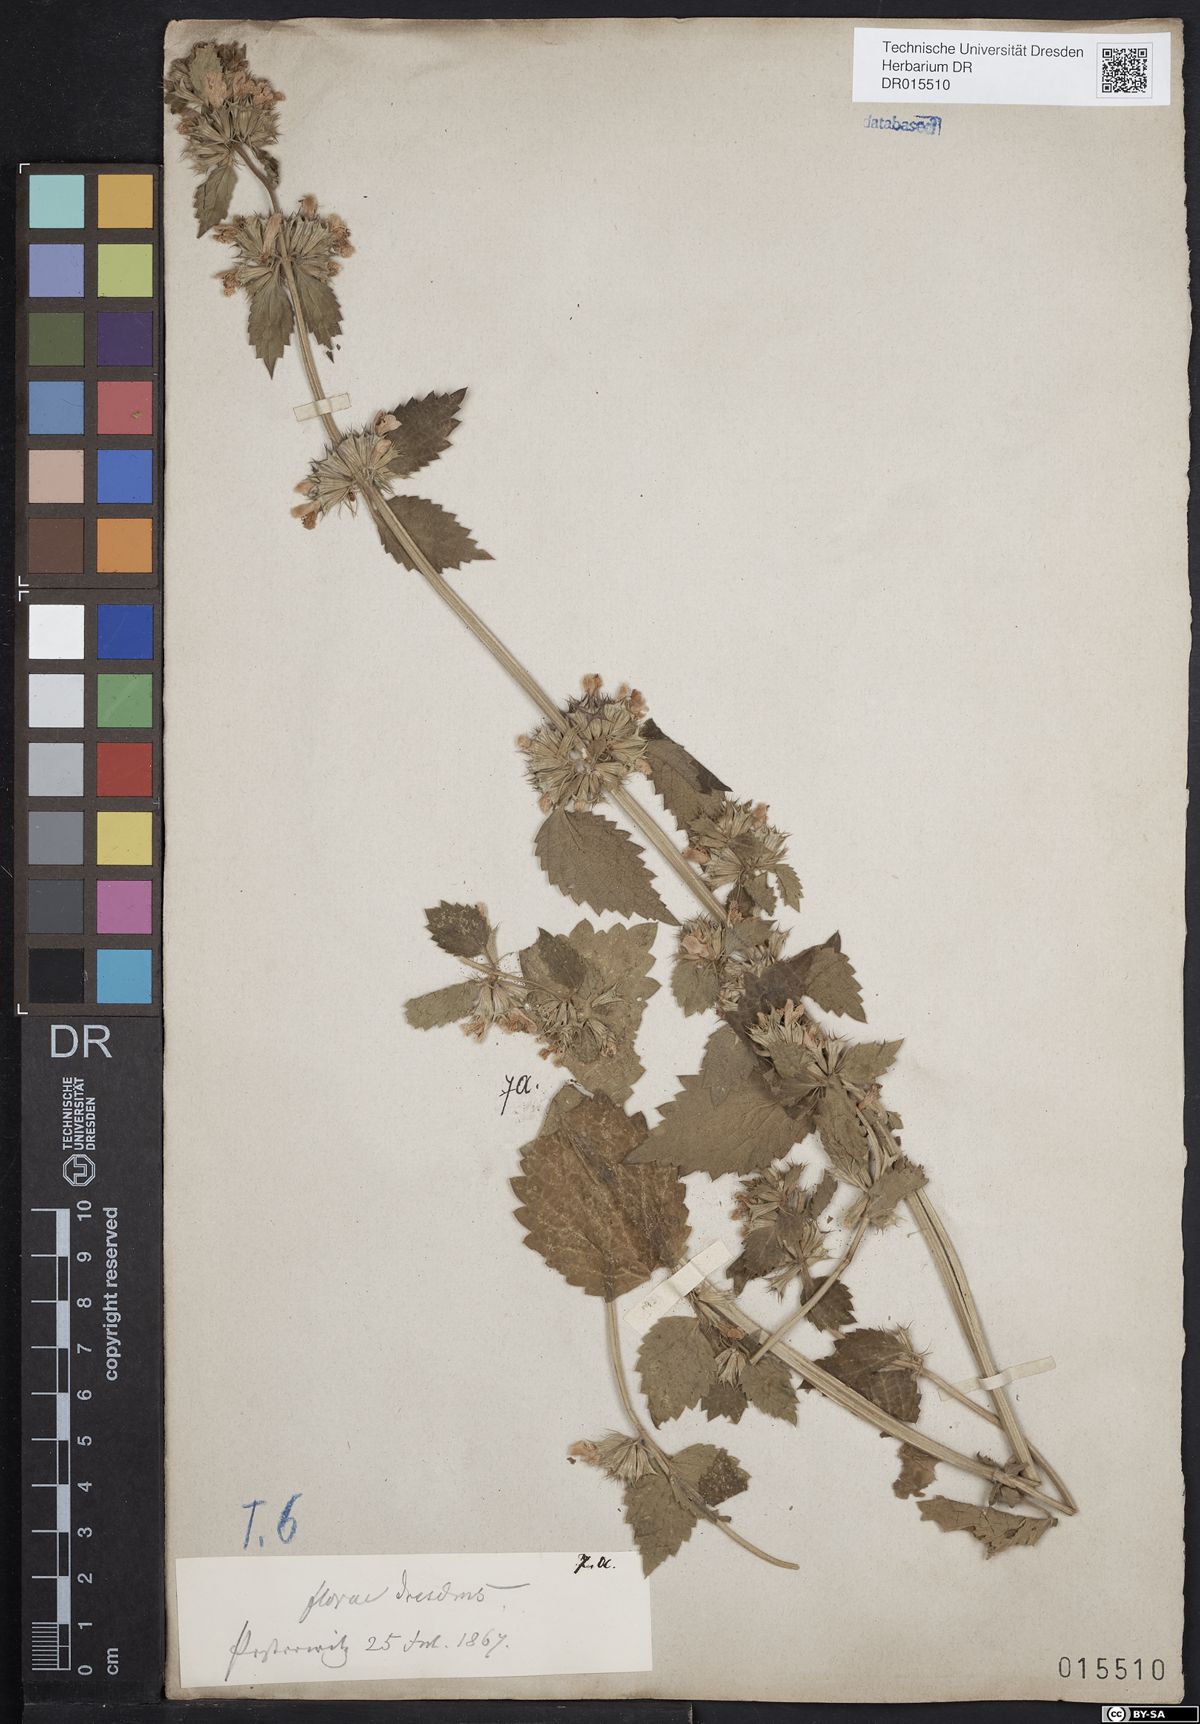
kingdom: Plantae
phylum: Tracheophyta
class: Magnoliopsida
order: Lamiales
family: Lamiaceae
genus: Ballota
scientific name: Ballota nigra
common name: Black horehound
